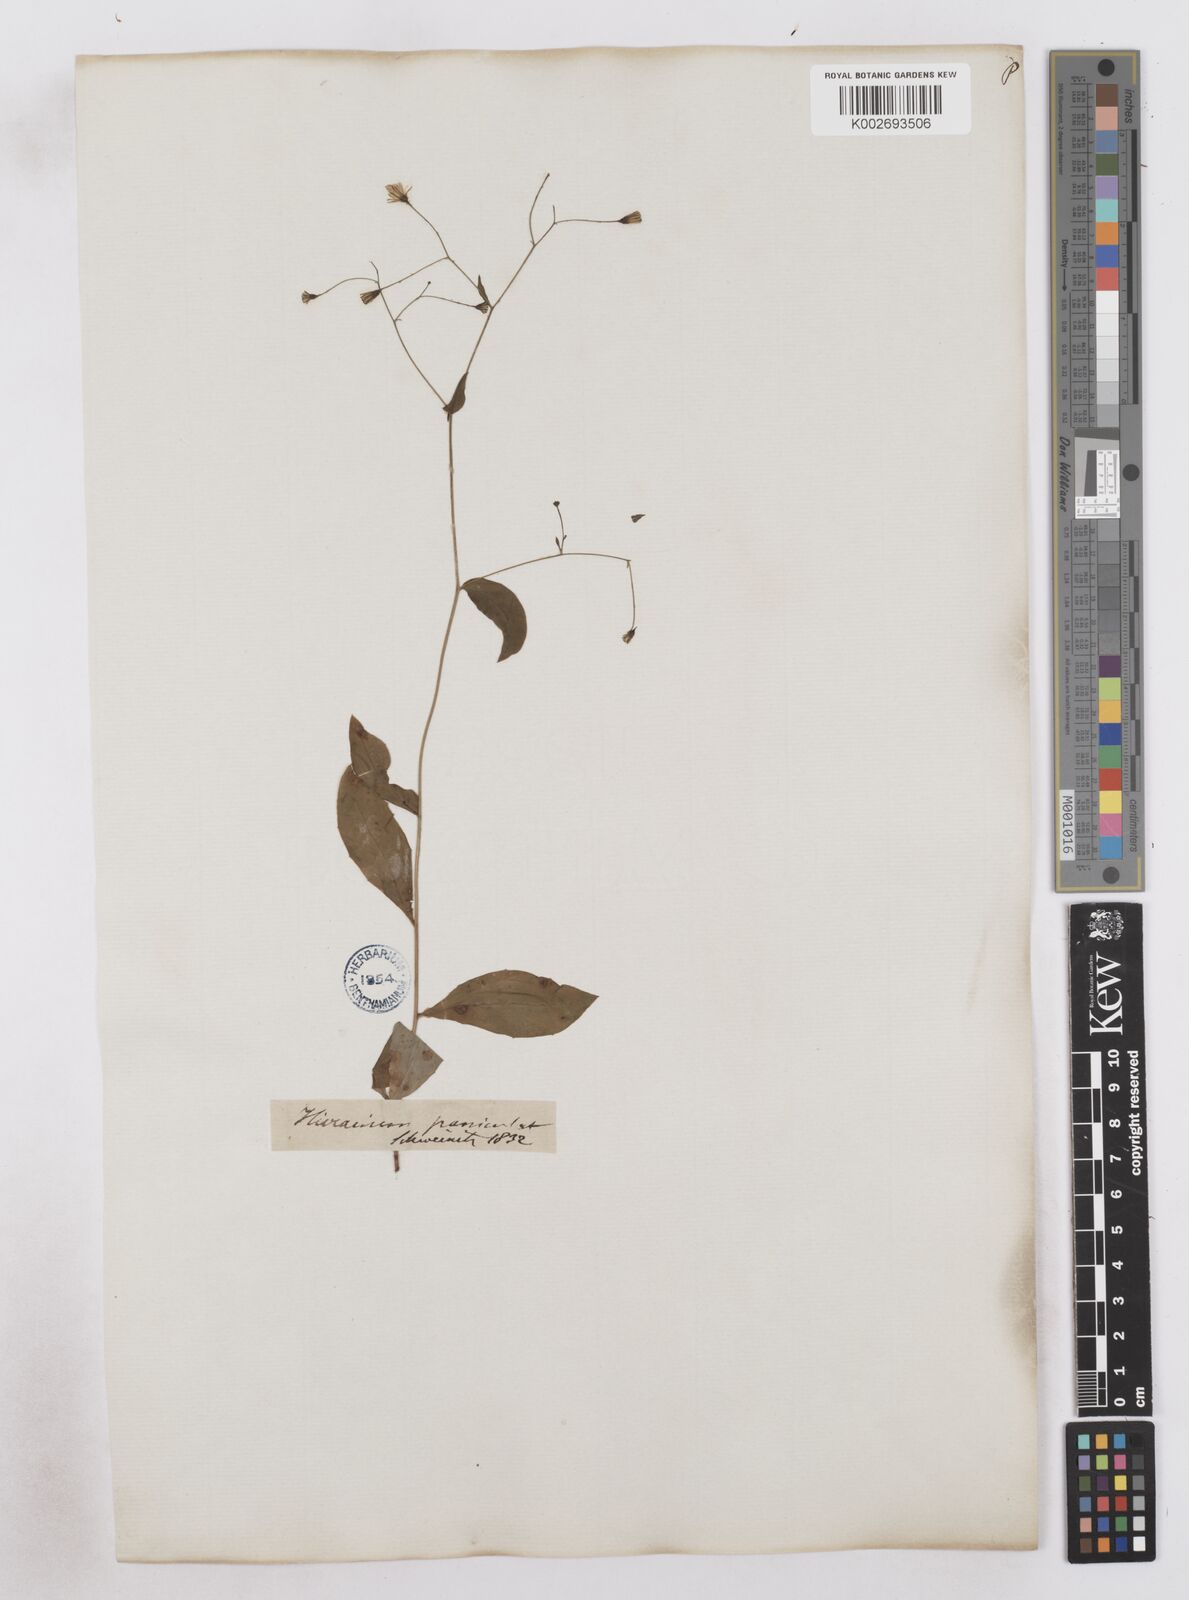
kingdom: Plantae
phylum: Tracheophyta
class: Magnoliopsida
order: Asterales
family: Asteraceae
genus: Hieracium
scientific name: Hieracium paniculatum
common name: Allegheny hawkweed
